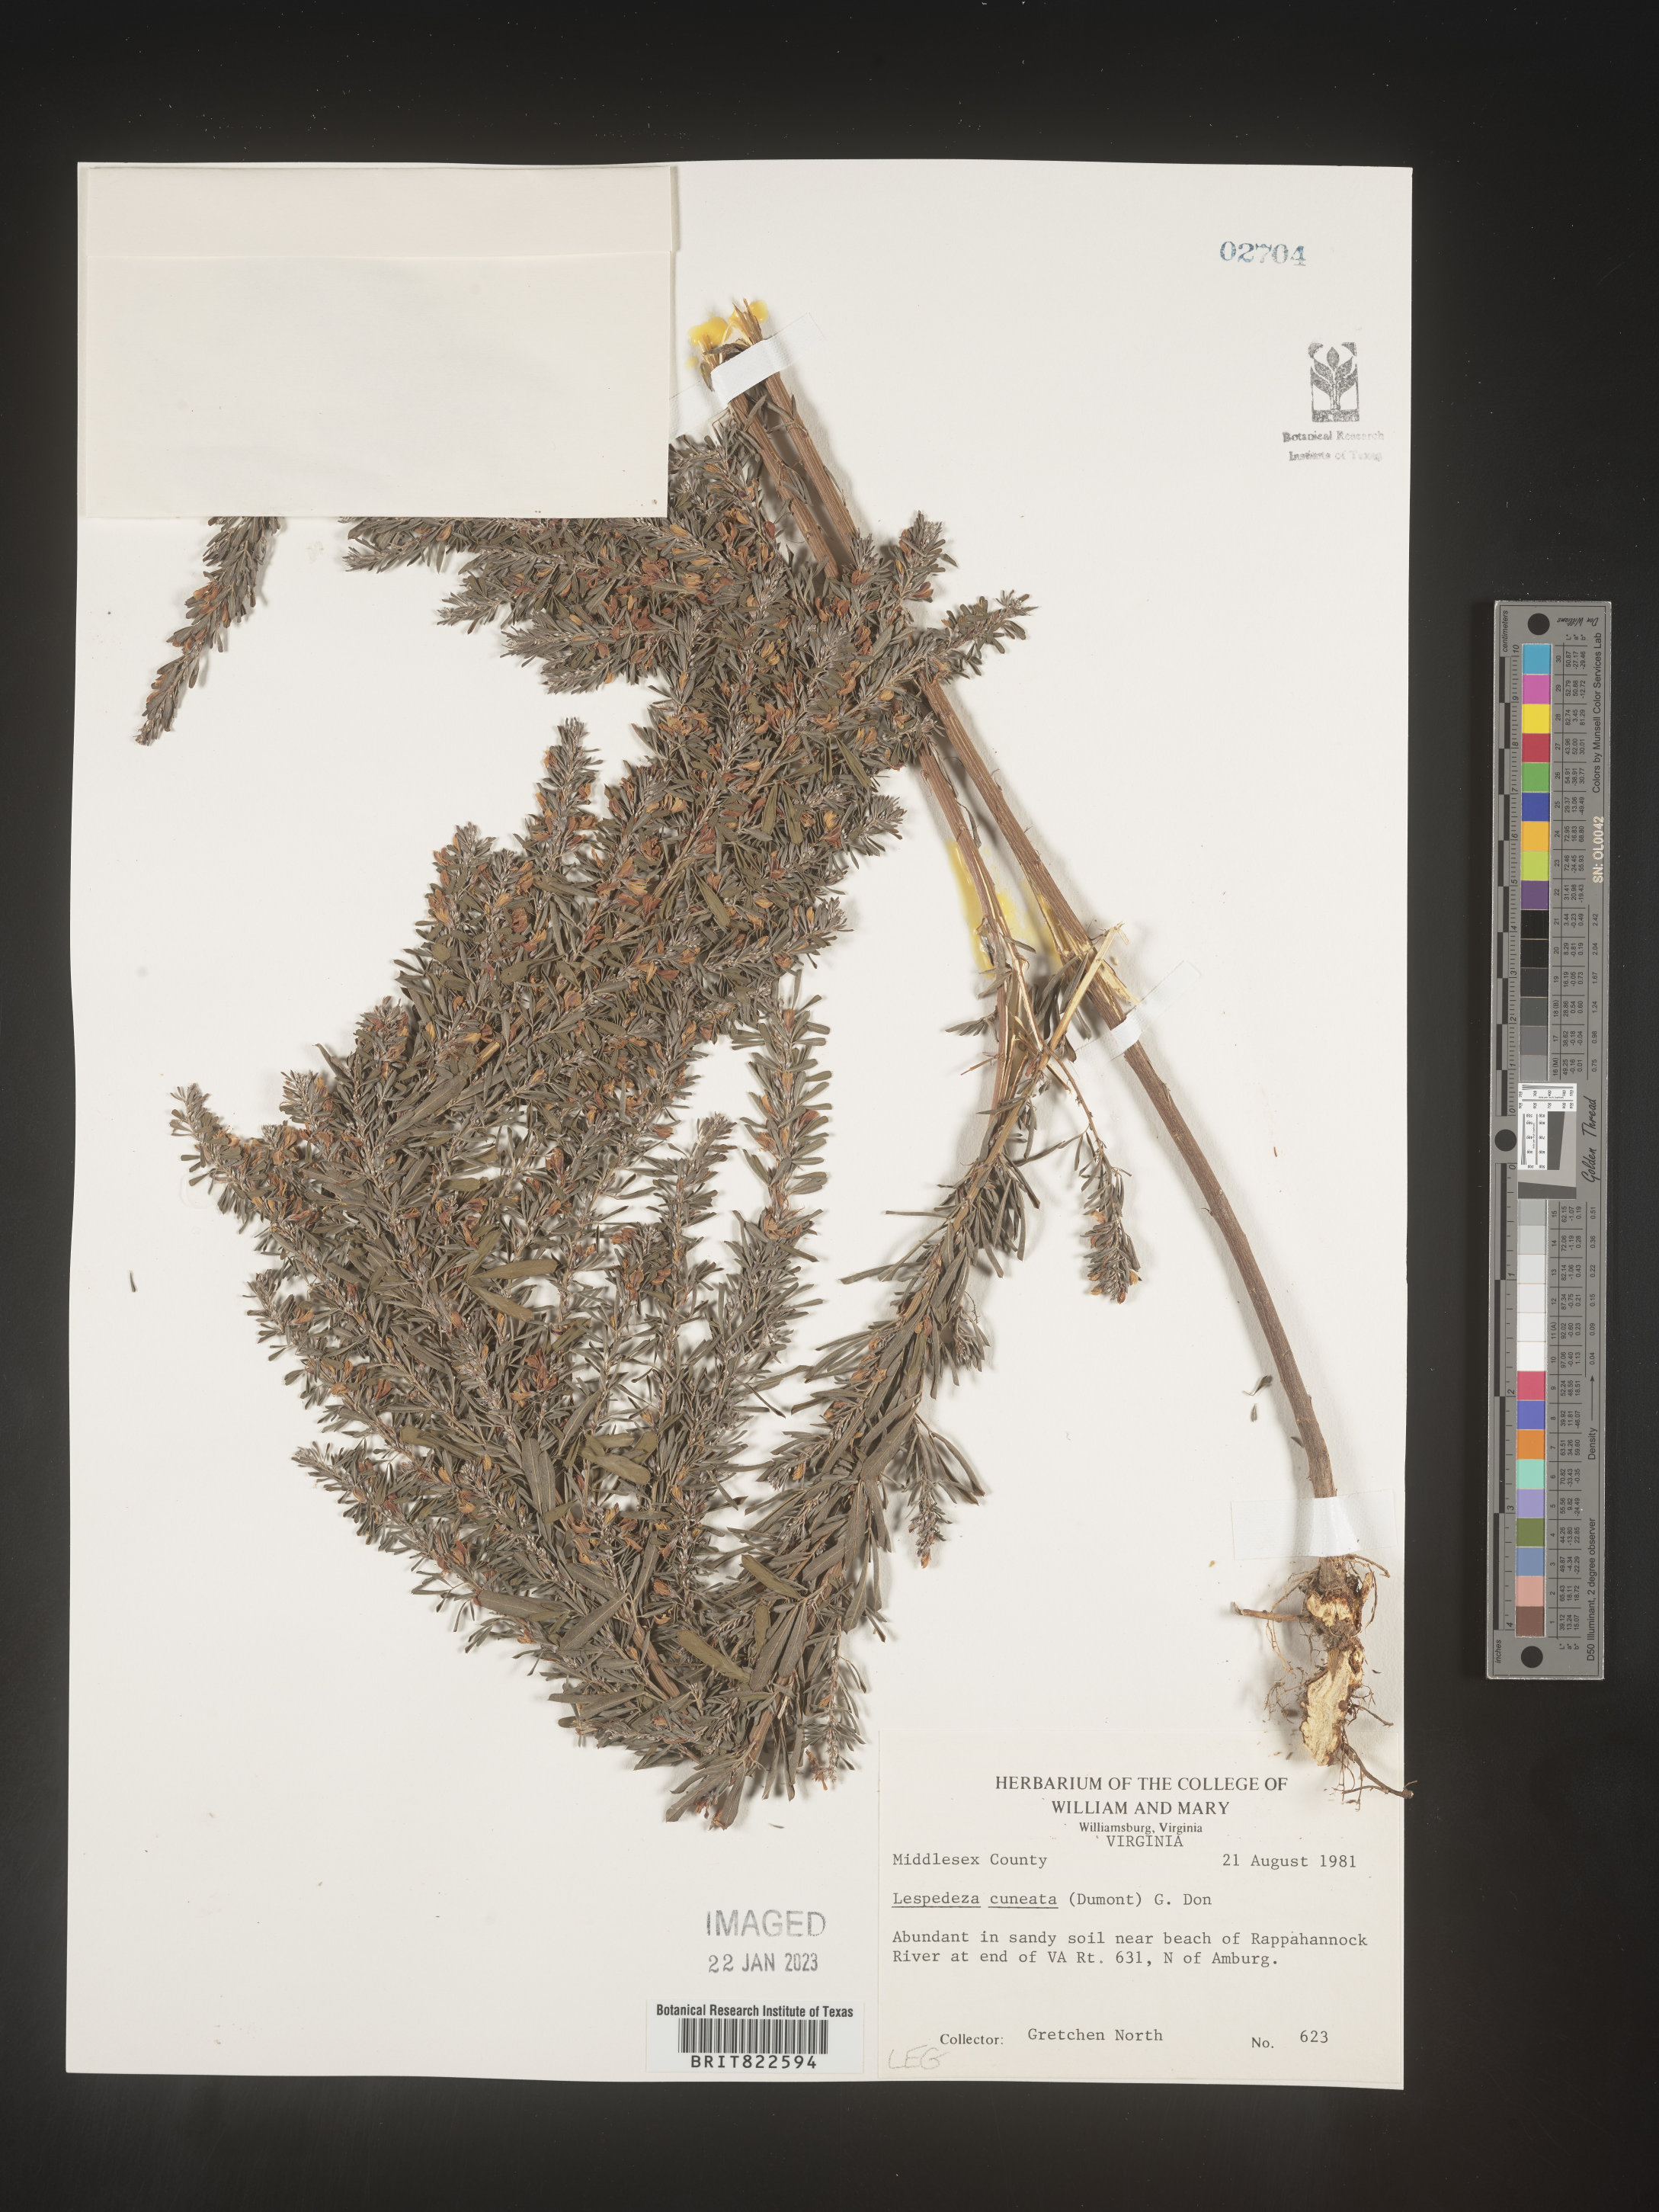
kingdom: Plantae
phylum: Tracheophyta
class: Magnoliopsida
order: Fabales
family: Fabaceae
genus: Lespedeza
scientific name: Lespedeza cuneata
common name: Chinese bush-clover
